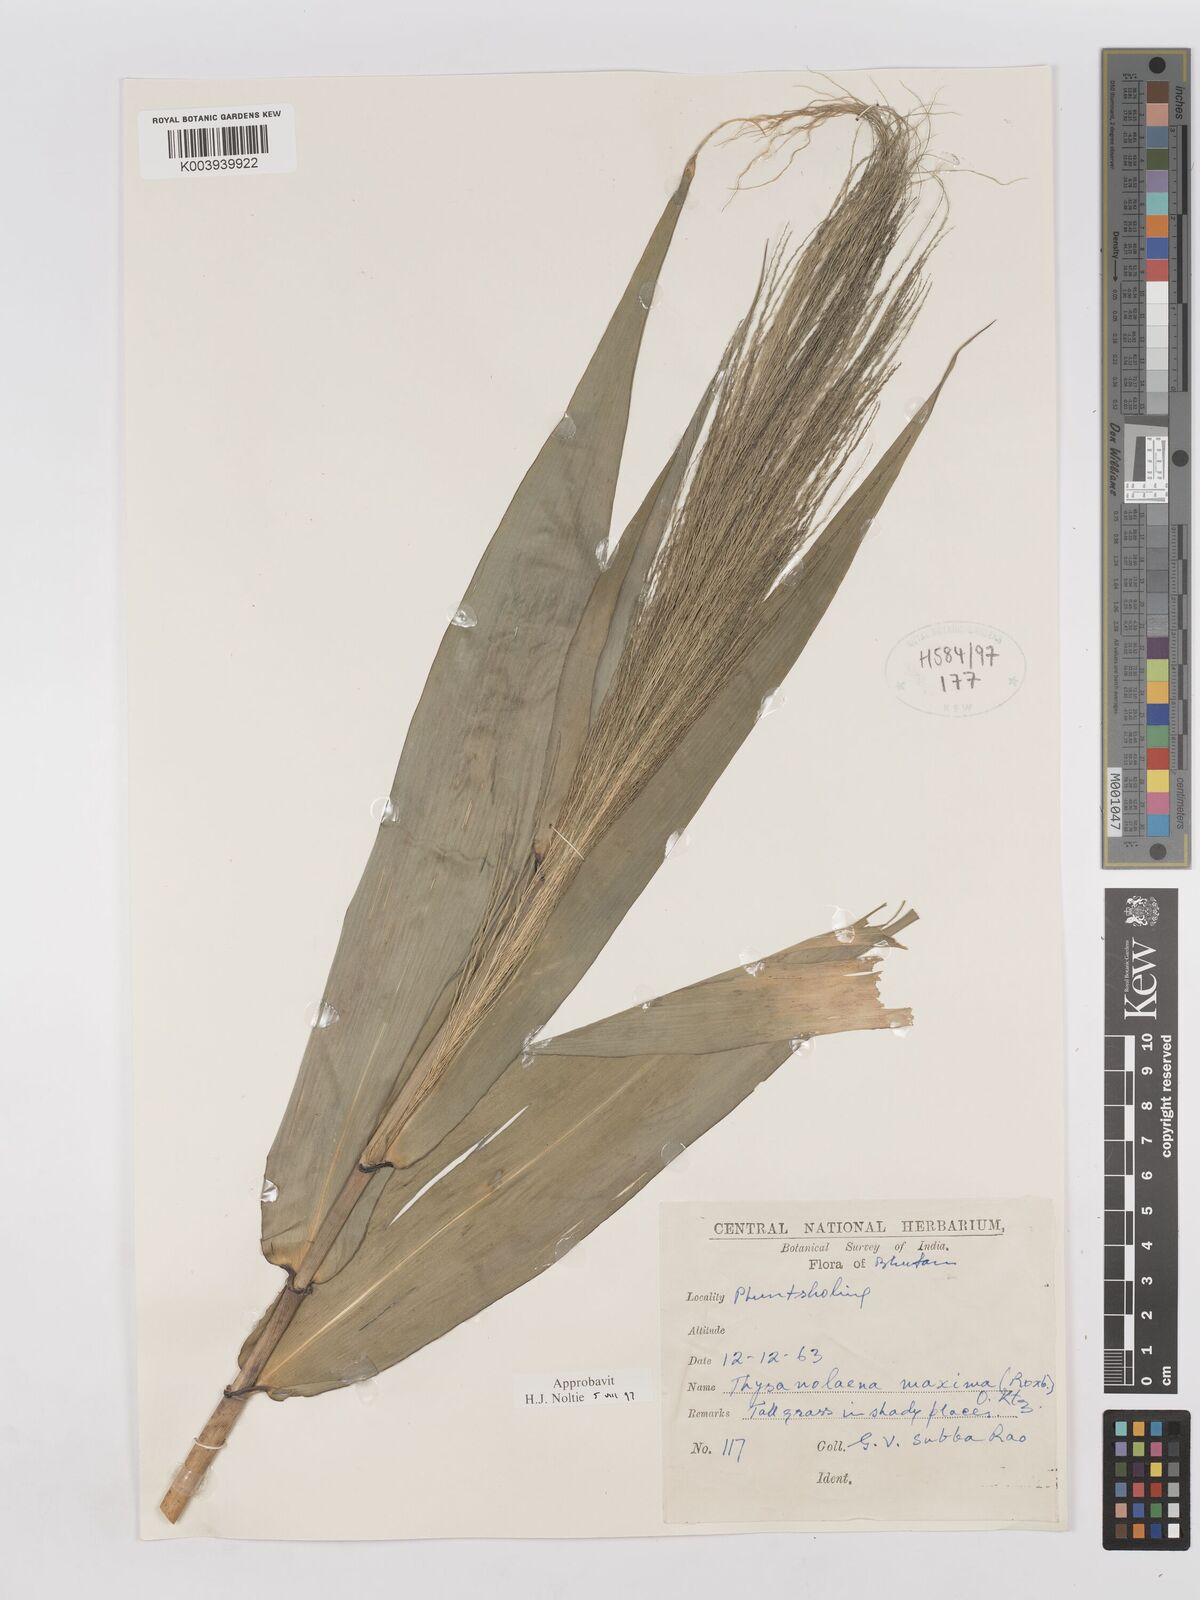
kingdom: Plantae
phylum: Tracheophyta
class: Liliopsida
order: Poales
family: Poaceae
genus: Thysanolaena
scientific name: Thysanolaena latifolia
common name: Tiger grass
